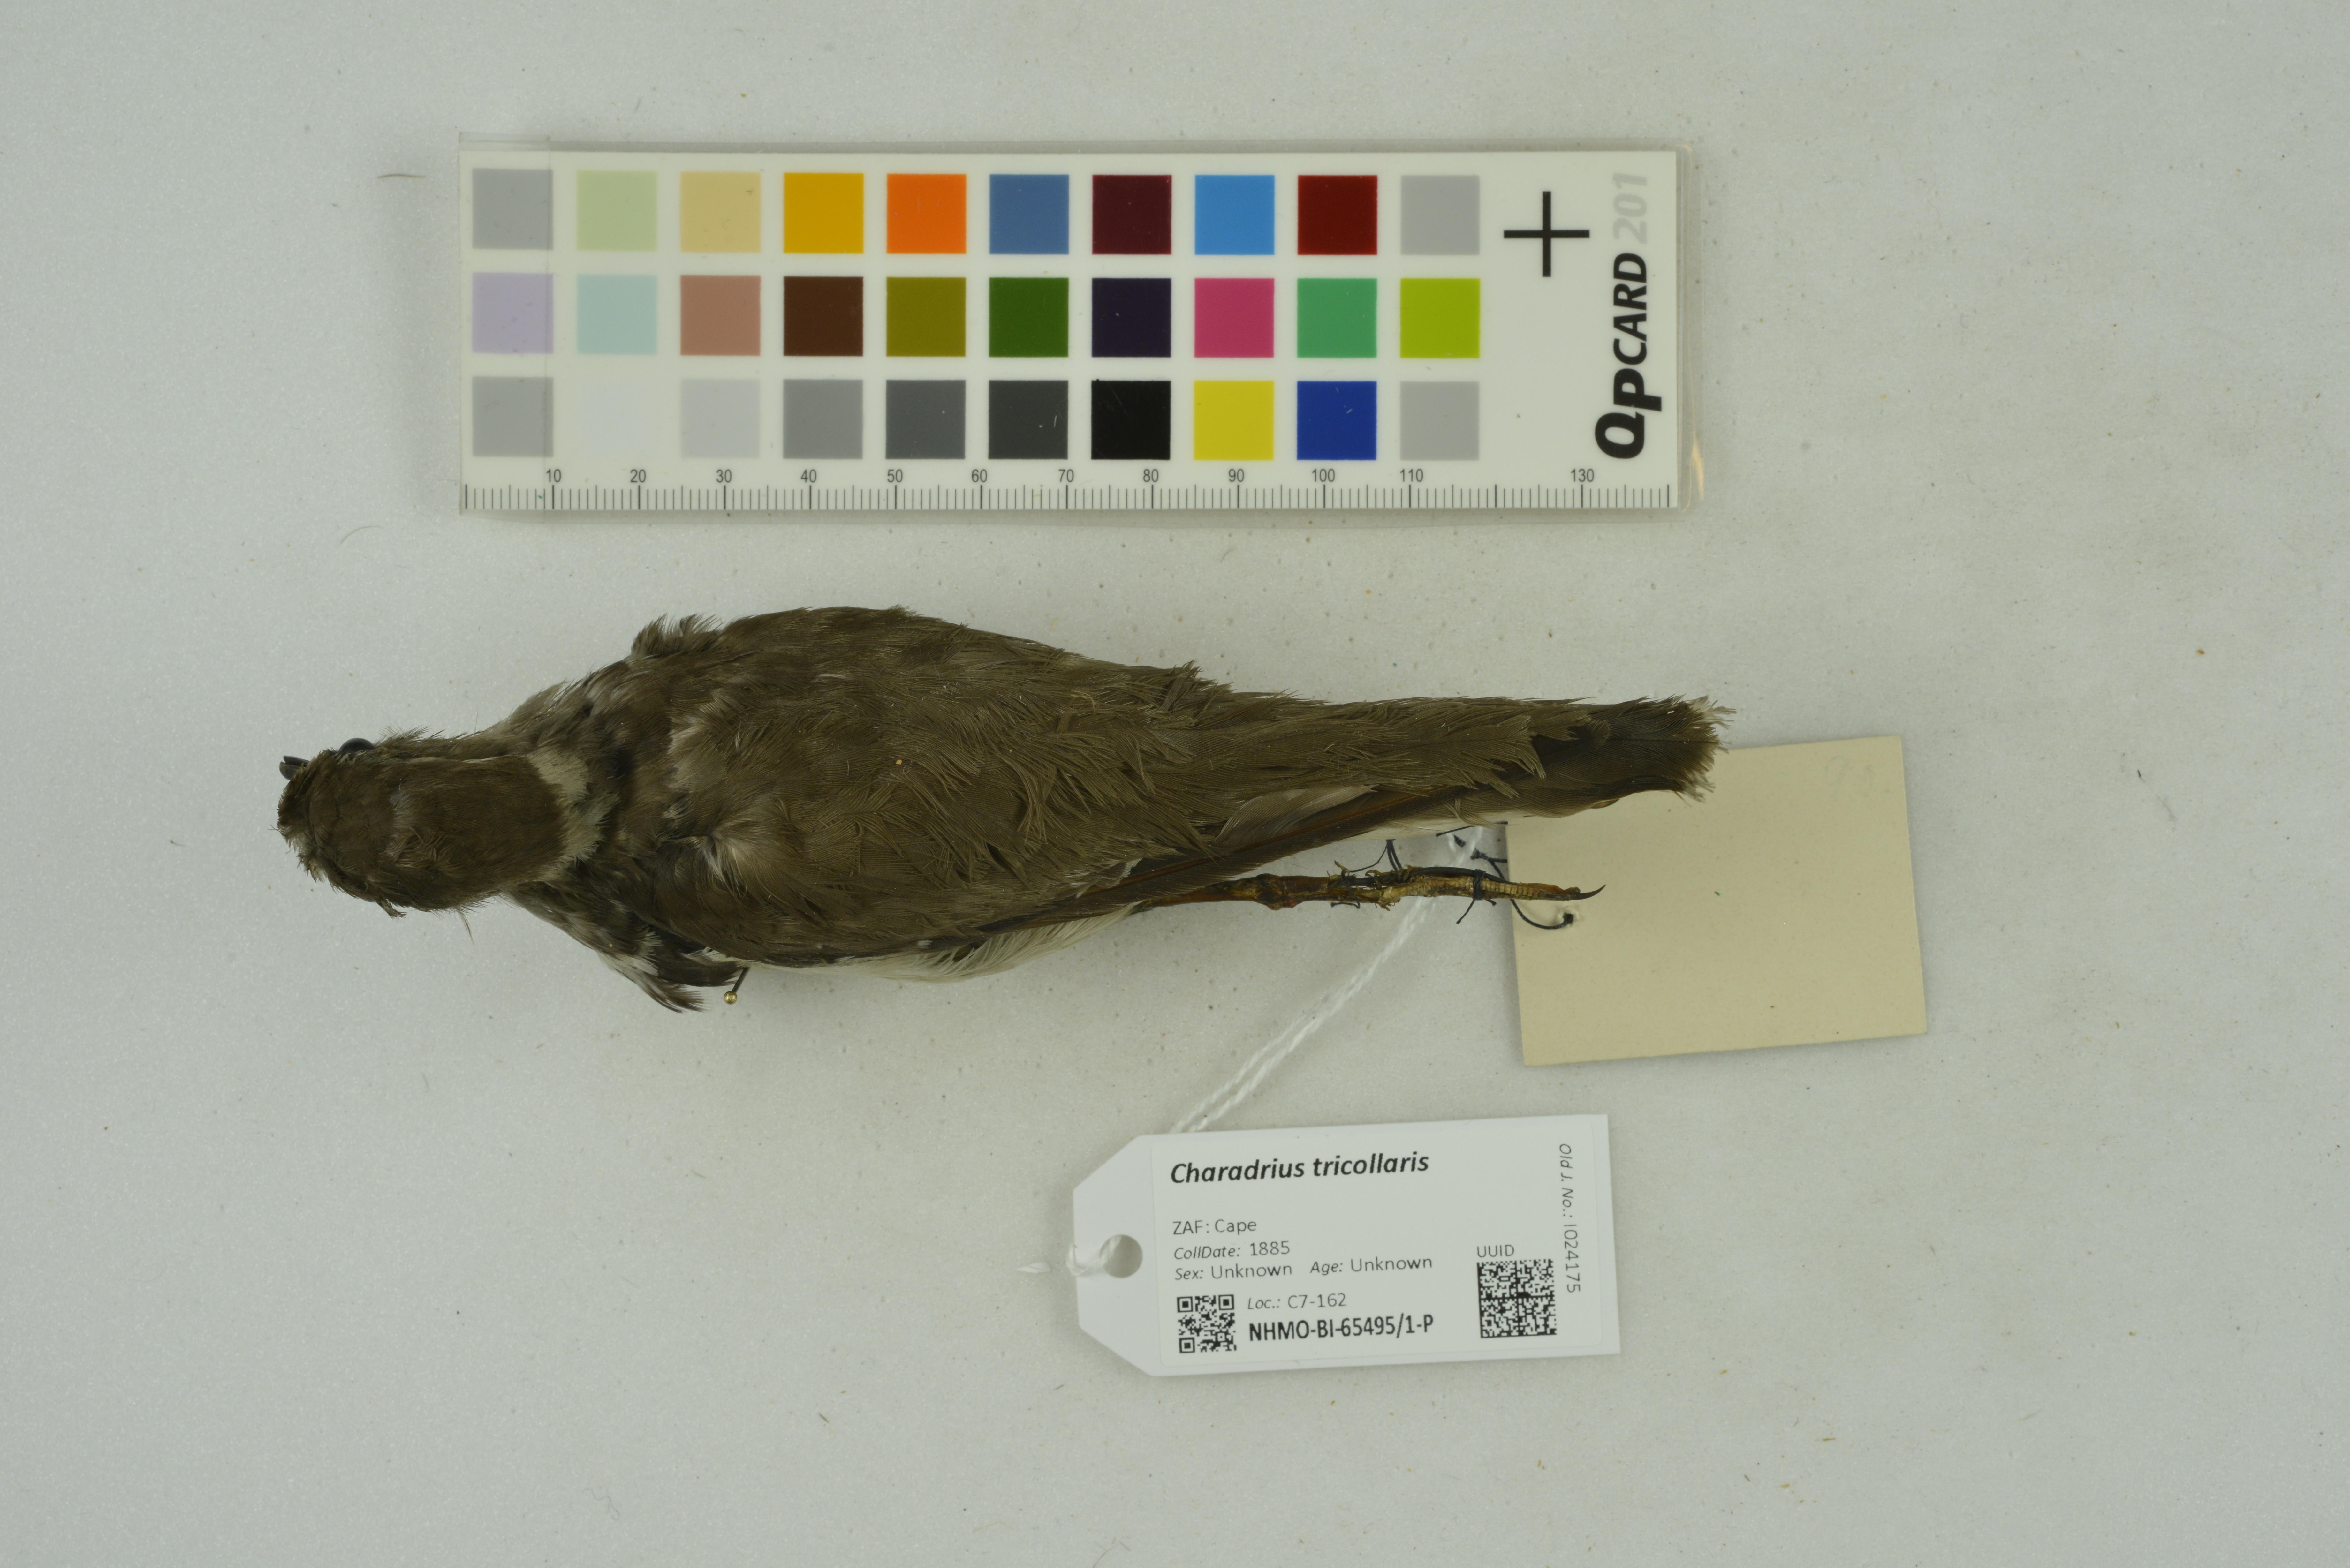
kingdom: Animalia
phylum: Chordata
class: Aves
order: Charadriiformes
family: Charadriidae
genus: Charadrius
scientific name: Charadrius tricollaris
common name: Three-banded plover
